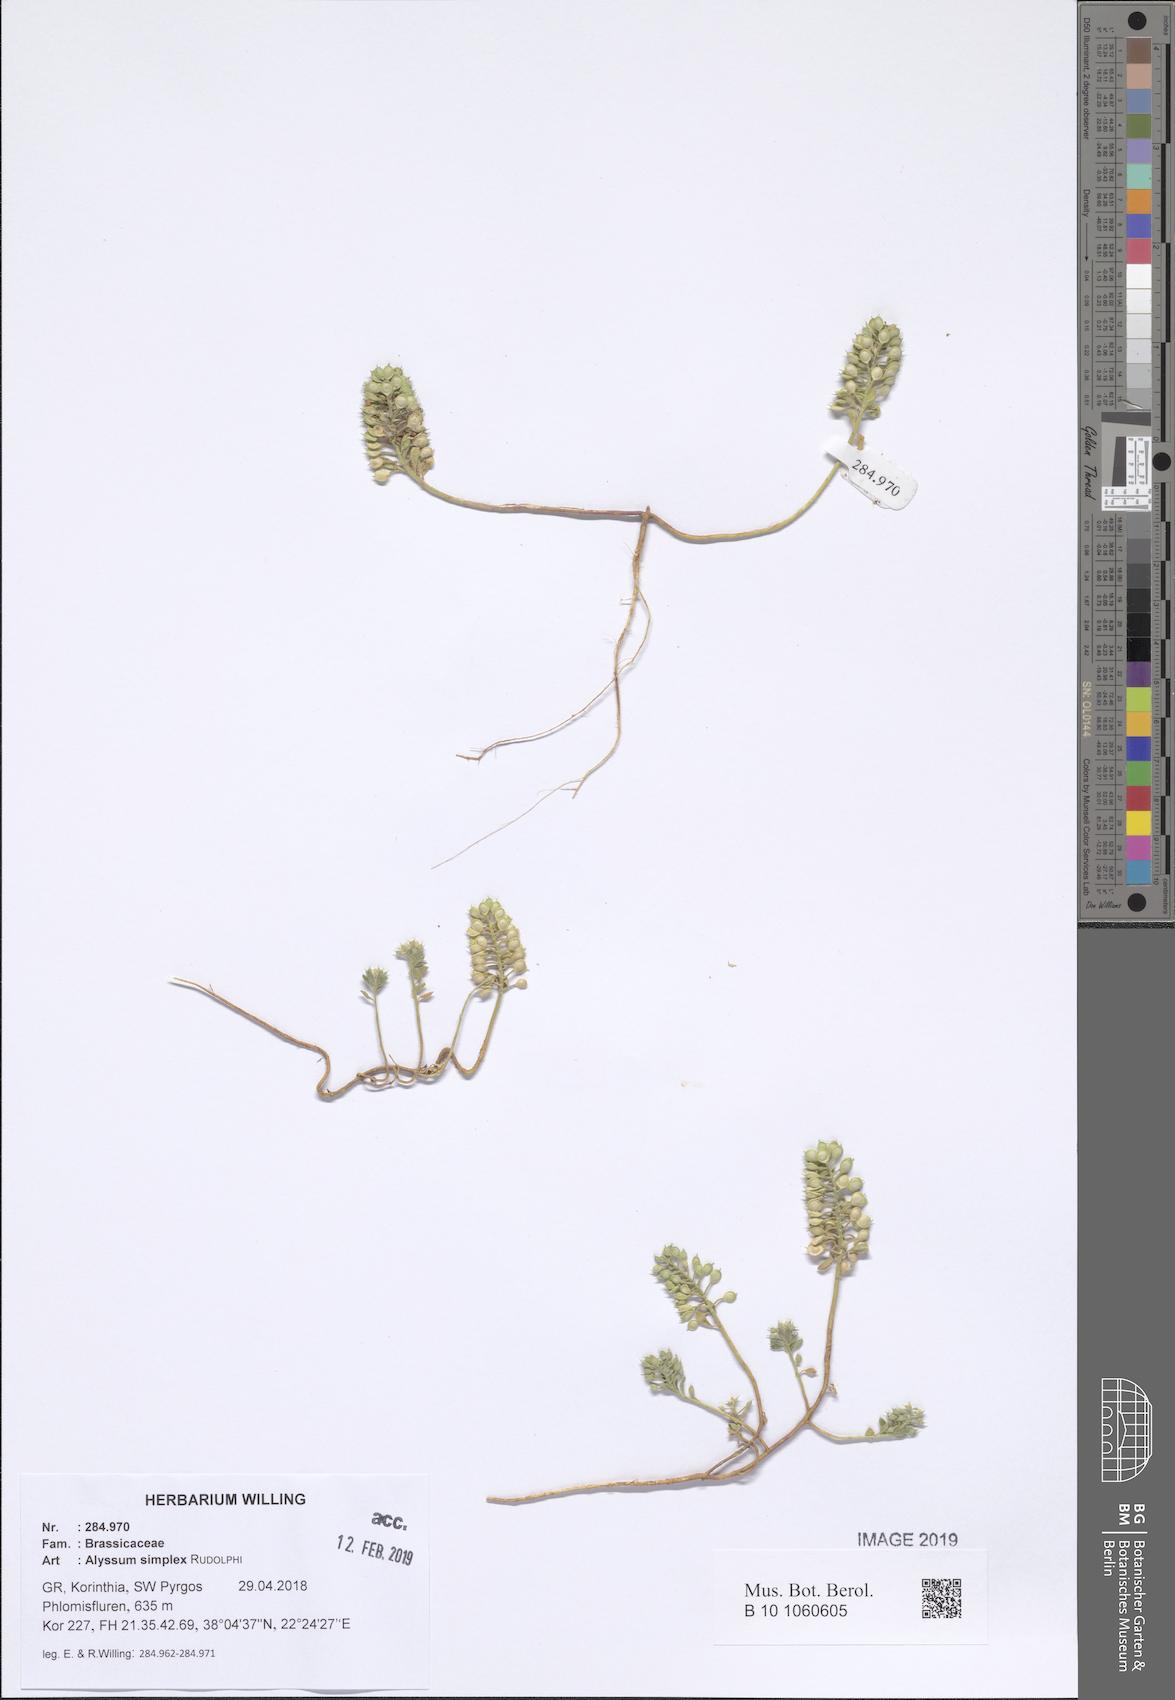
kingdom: Plantae
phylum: Tracheophyta
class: Magnoliopsida
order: Brassicales
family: Brassicaceae
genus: Alyssum
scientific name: Alyssum simplex
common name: Alyssum
